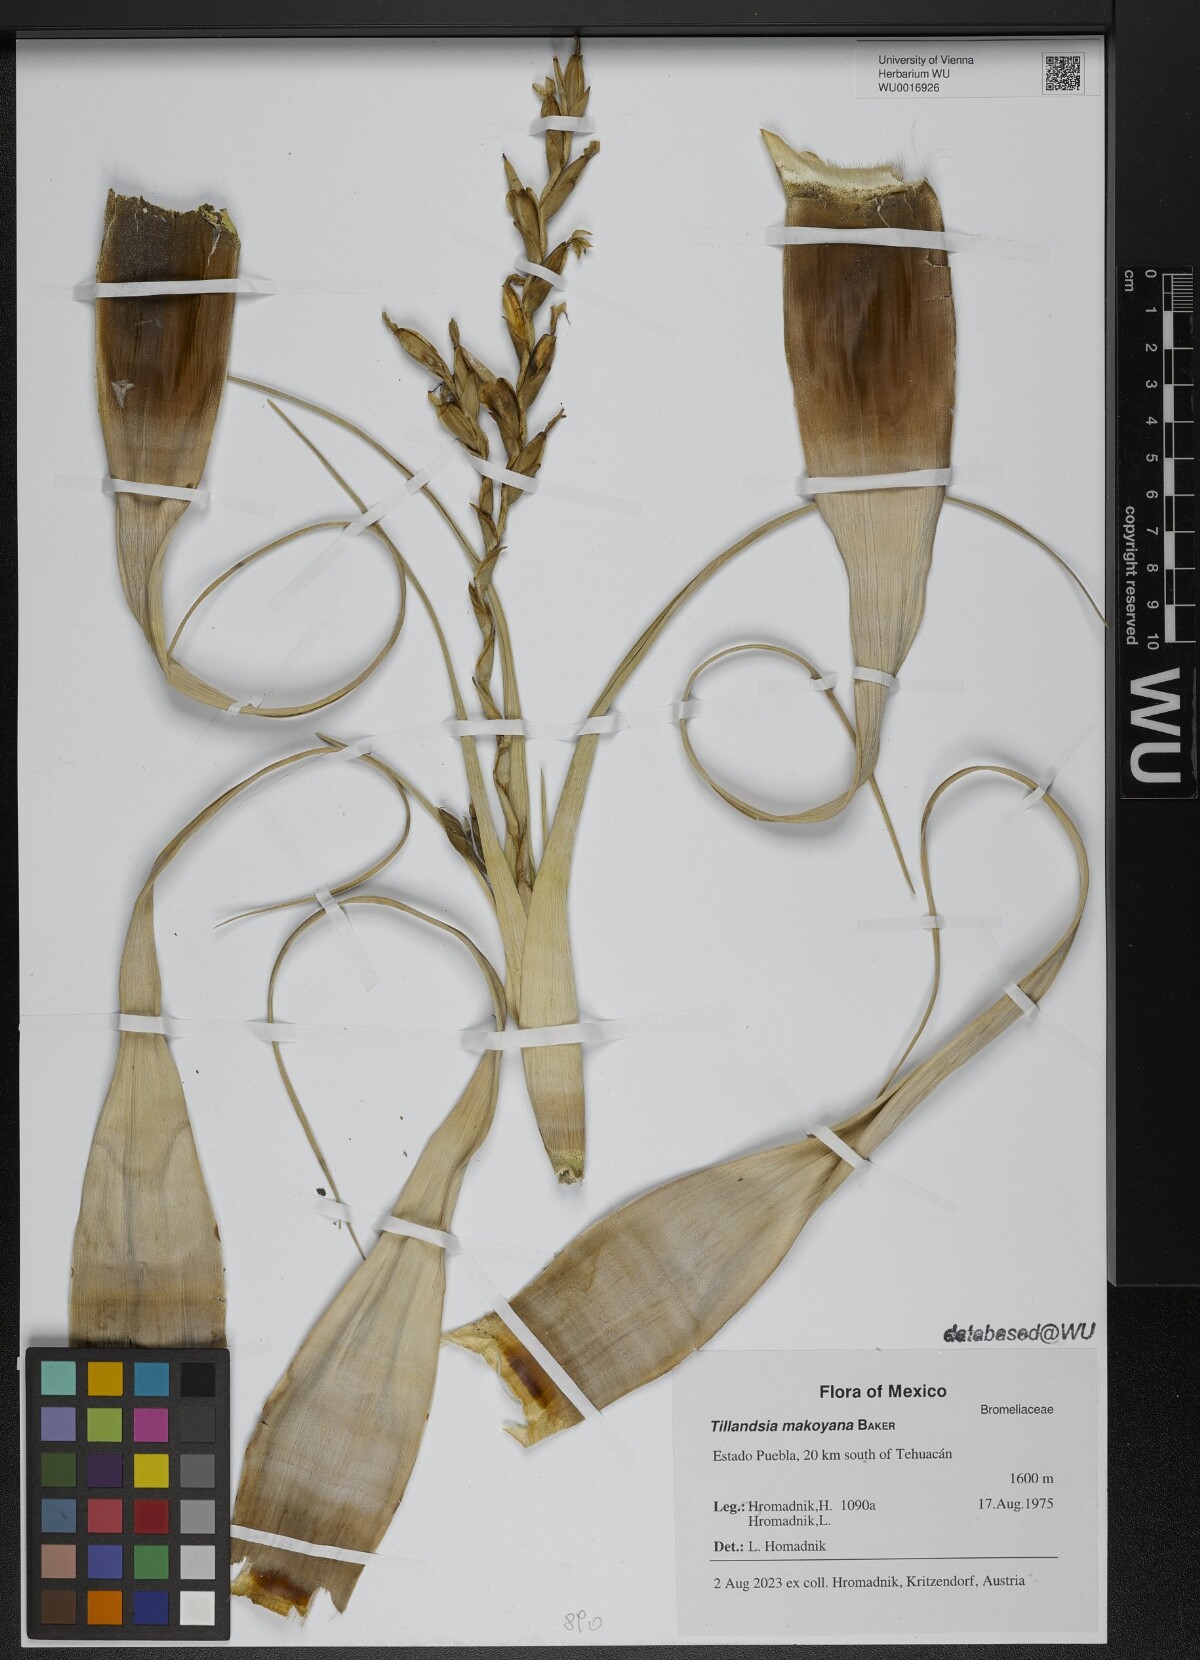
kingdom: Plantae
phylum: Tracheophyta
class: Liliopsida
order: Poales
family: Bromeliaceae
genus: Tillandsia
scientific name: Tillandsia makoyana
